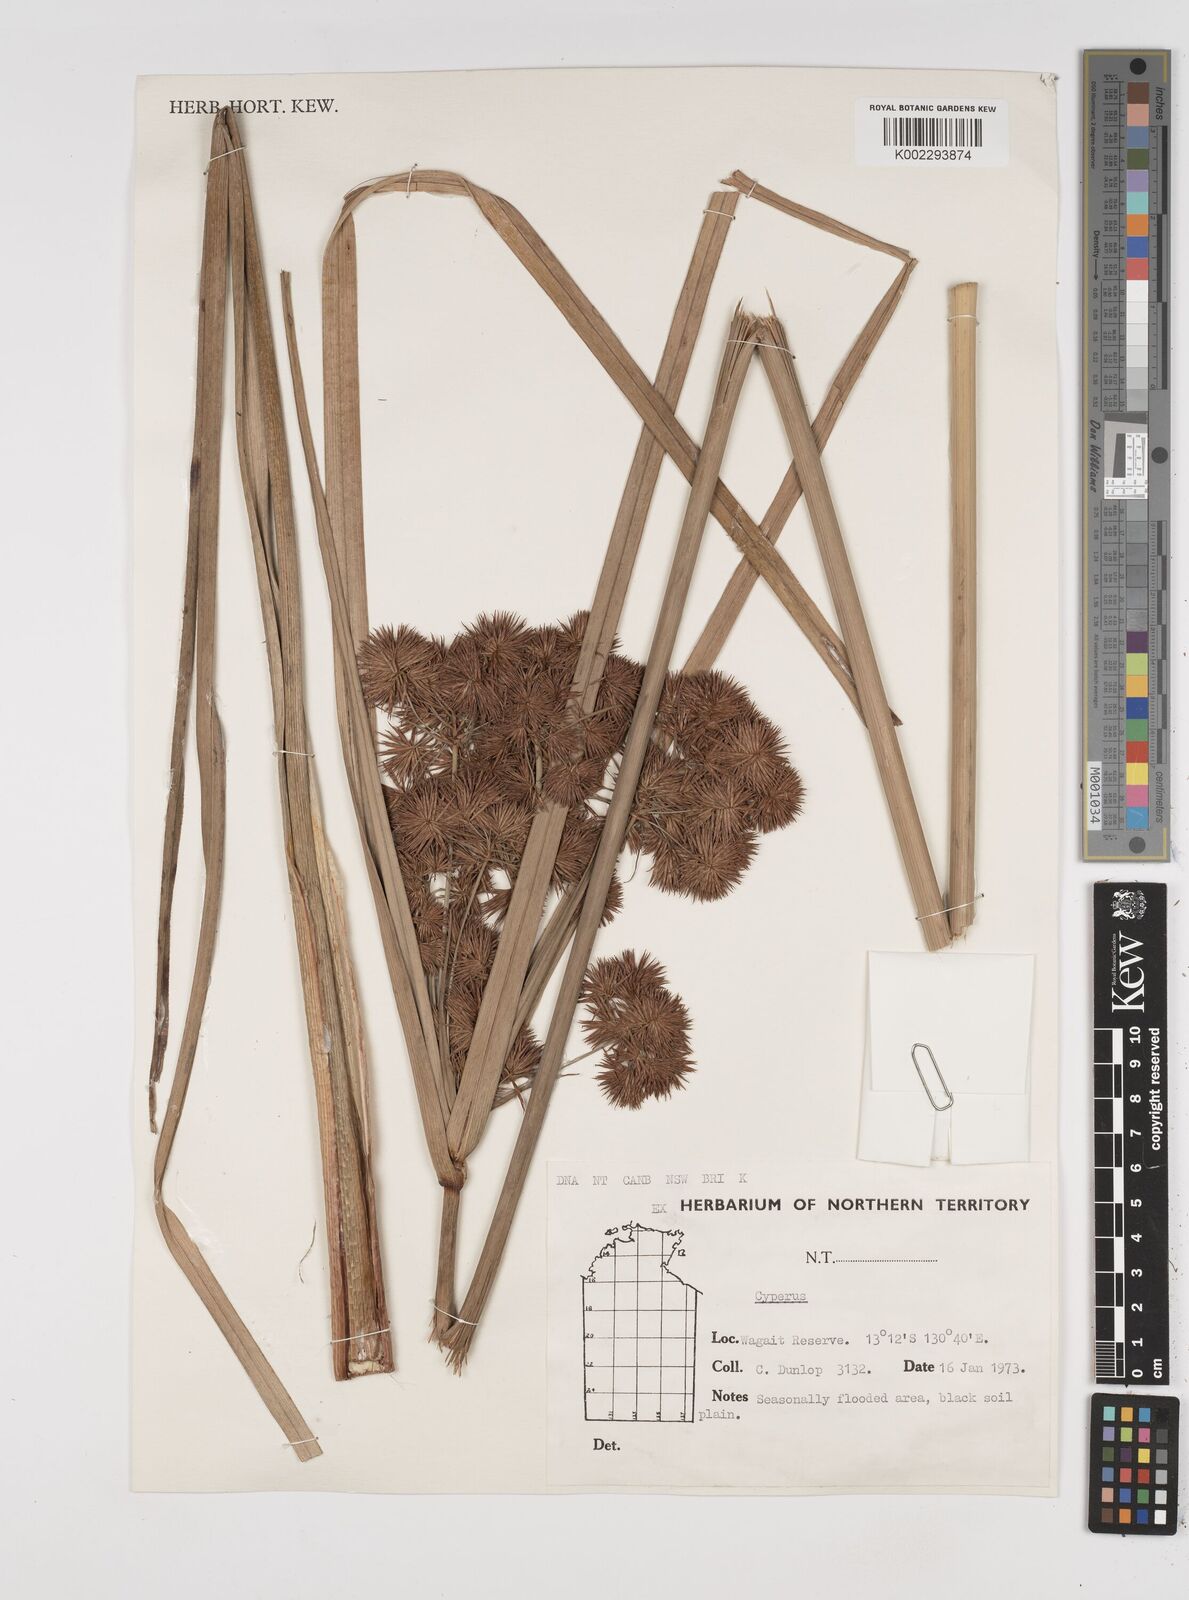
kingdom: Plantae
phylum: Tracheophyta
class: Liliopsida
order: Poales
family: Cyperaceae
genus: Cyperus
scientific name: Cyperus
